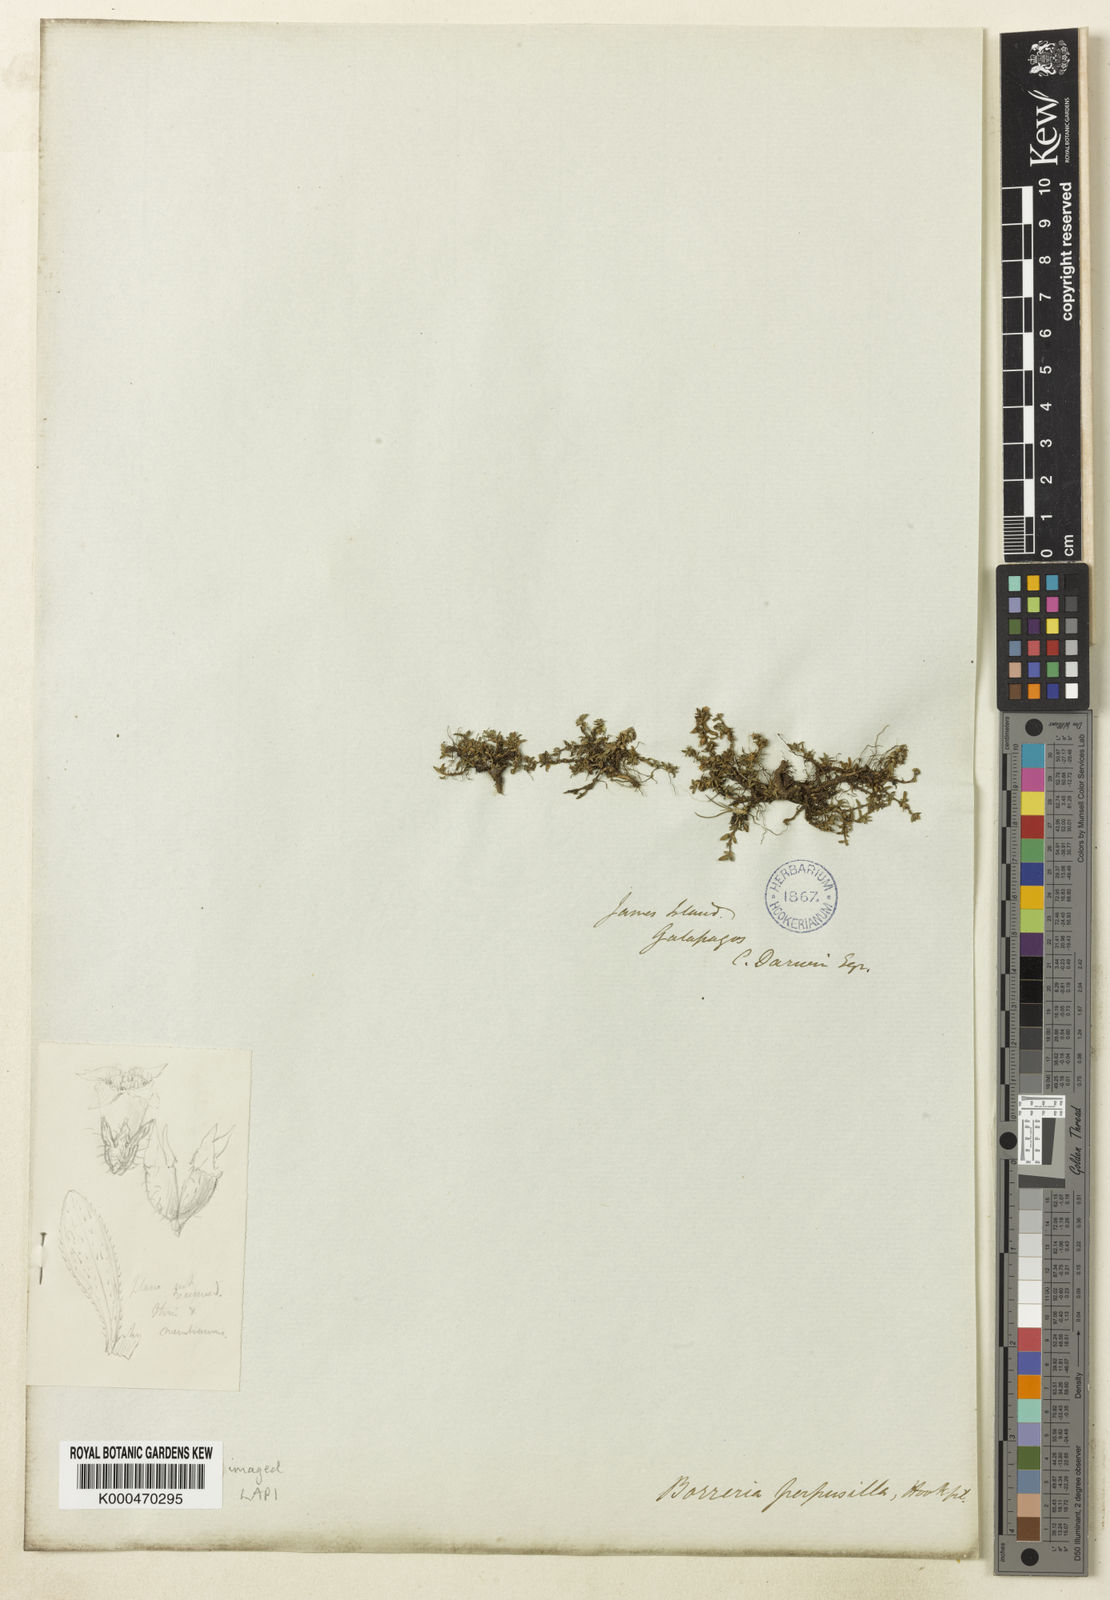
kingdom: Plantae
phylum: Tracheophyta
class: Magnoliopsida
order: Gentianales
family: Rubiaceae
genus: Spermacoce
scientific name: Spermacoce perpusilla
